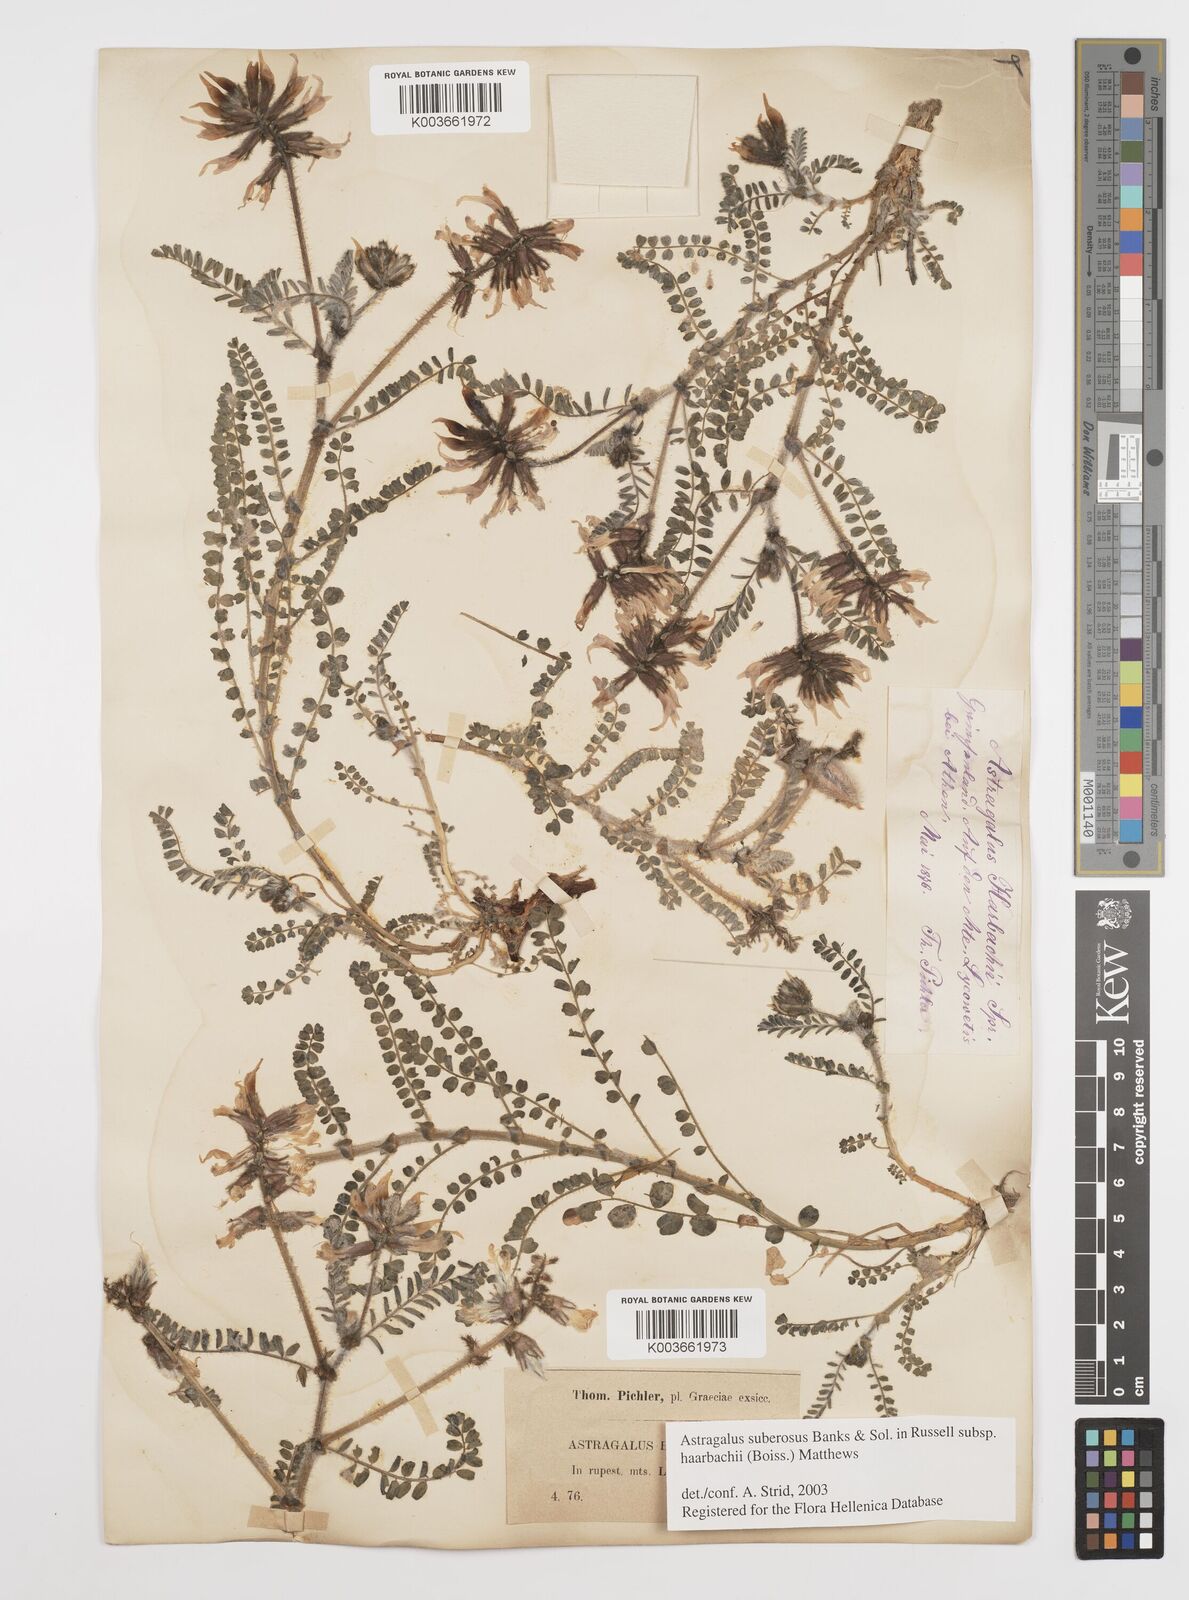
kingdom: Plantae
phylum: Tracheophyta
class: Magnoliopsida
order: Fabales
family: Fabaceae
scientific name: Fabaceae
